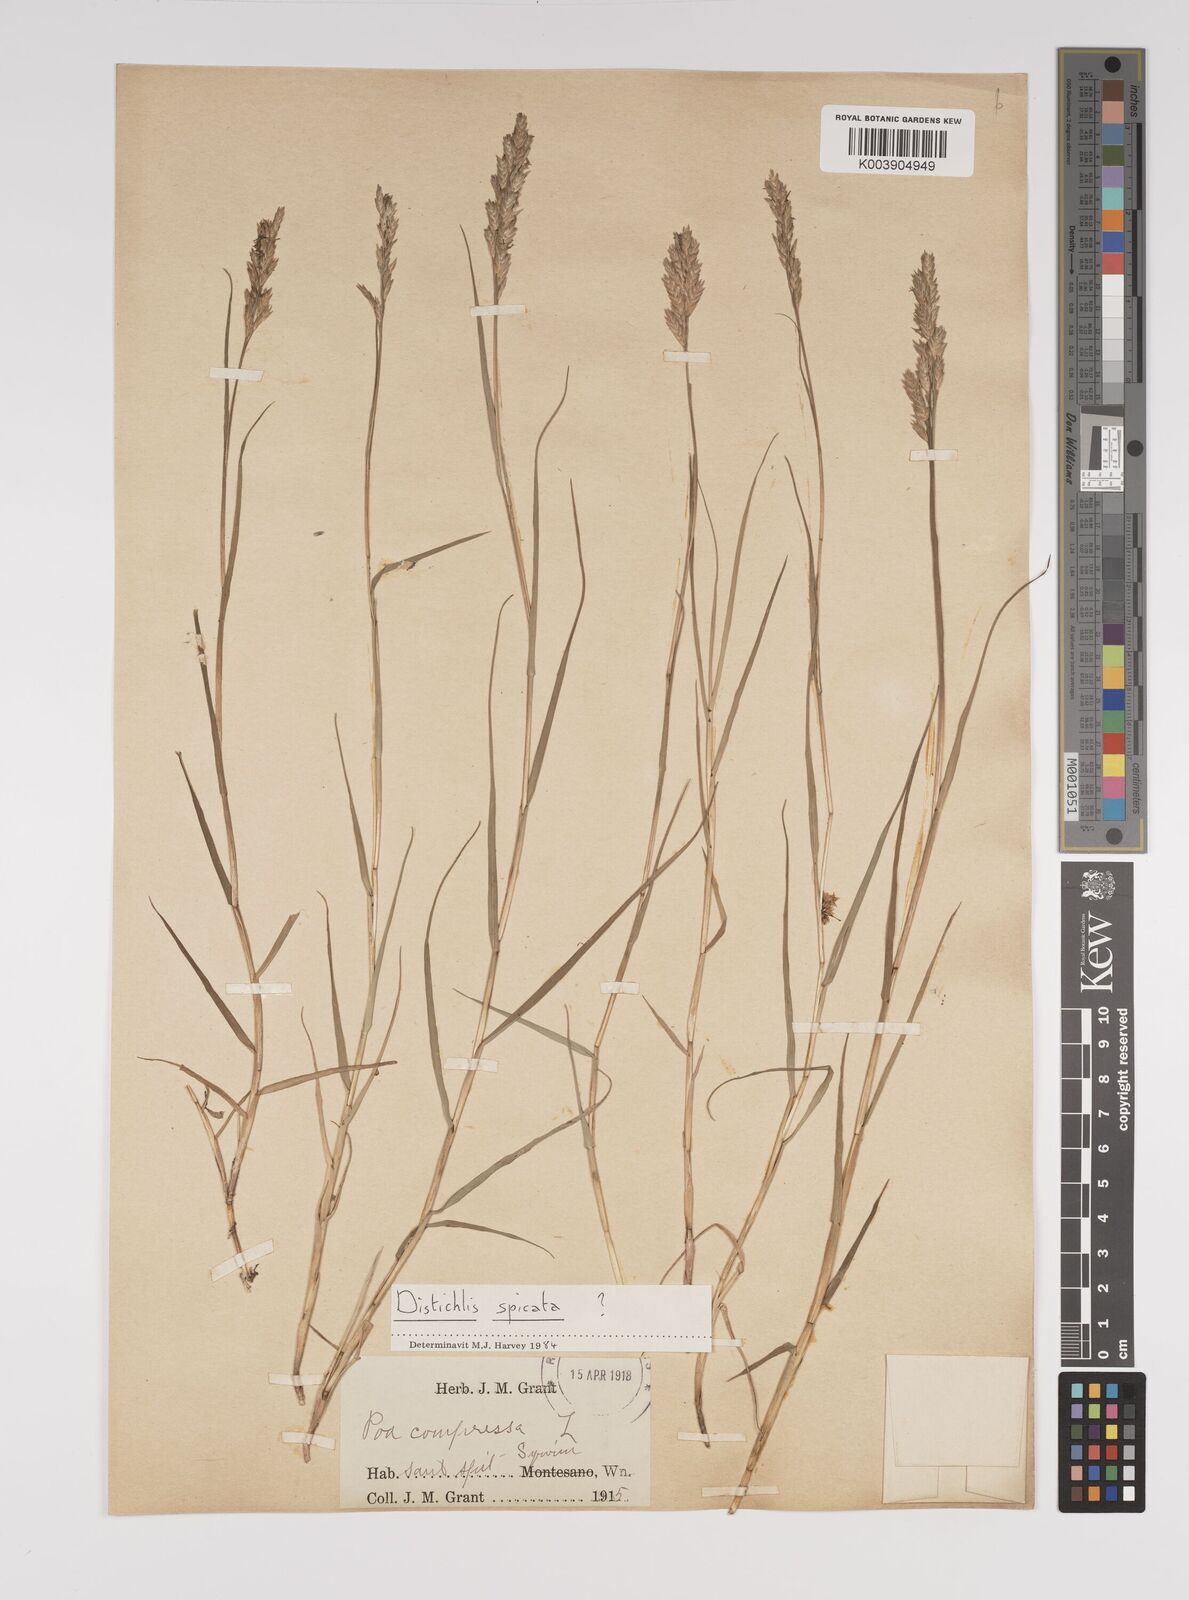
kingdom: Plantae
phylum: Tracheophyta
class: Liliopsida
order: Poales
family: Poaceae
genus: Distichlis
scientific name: Distichlis spicata
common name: Saltgrass
